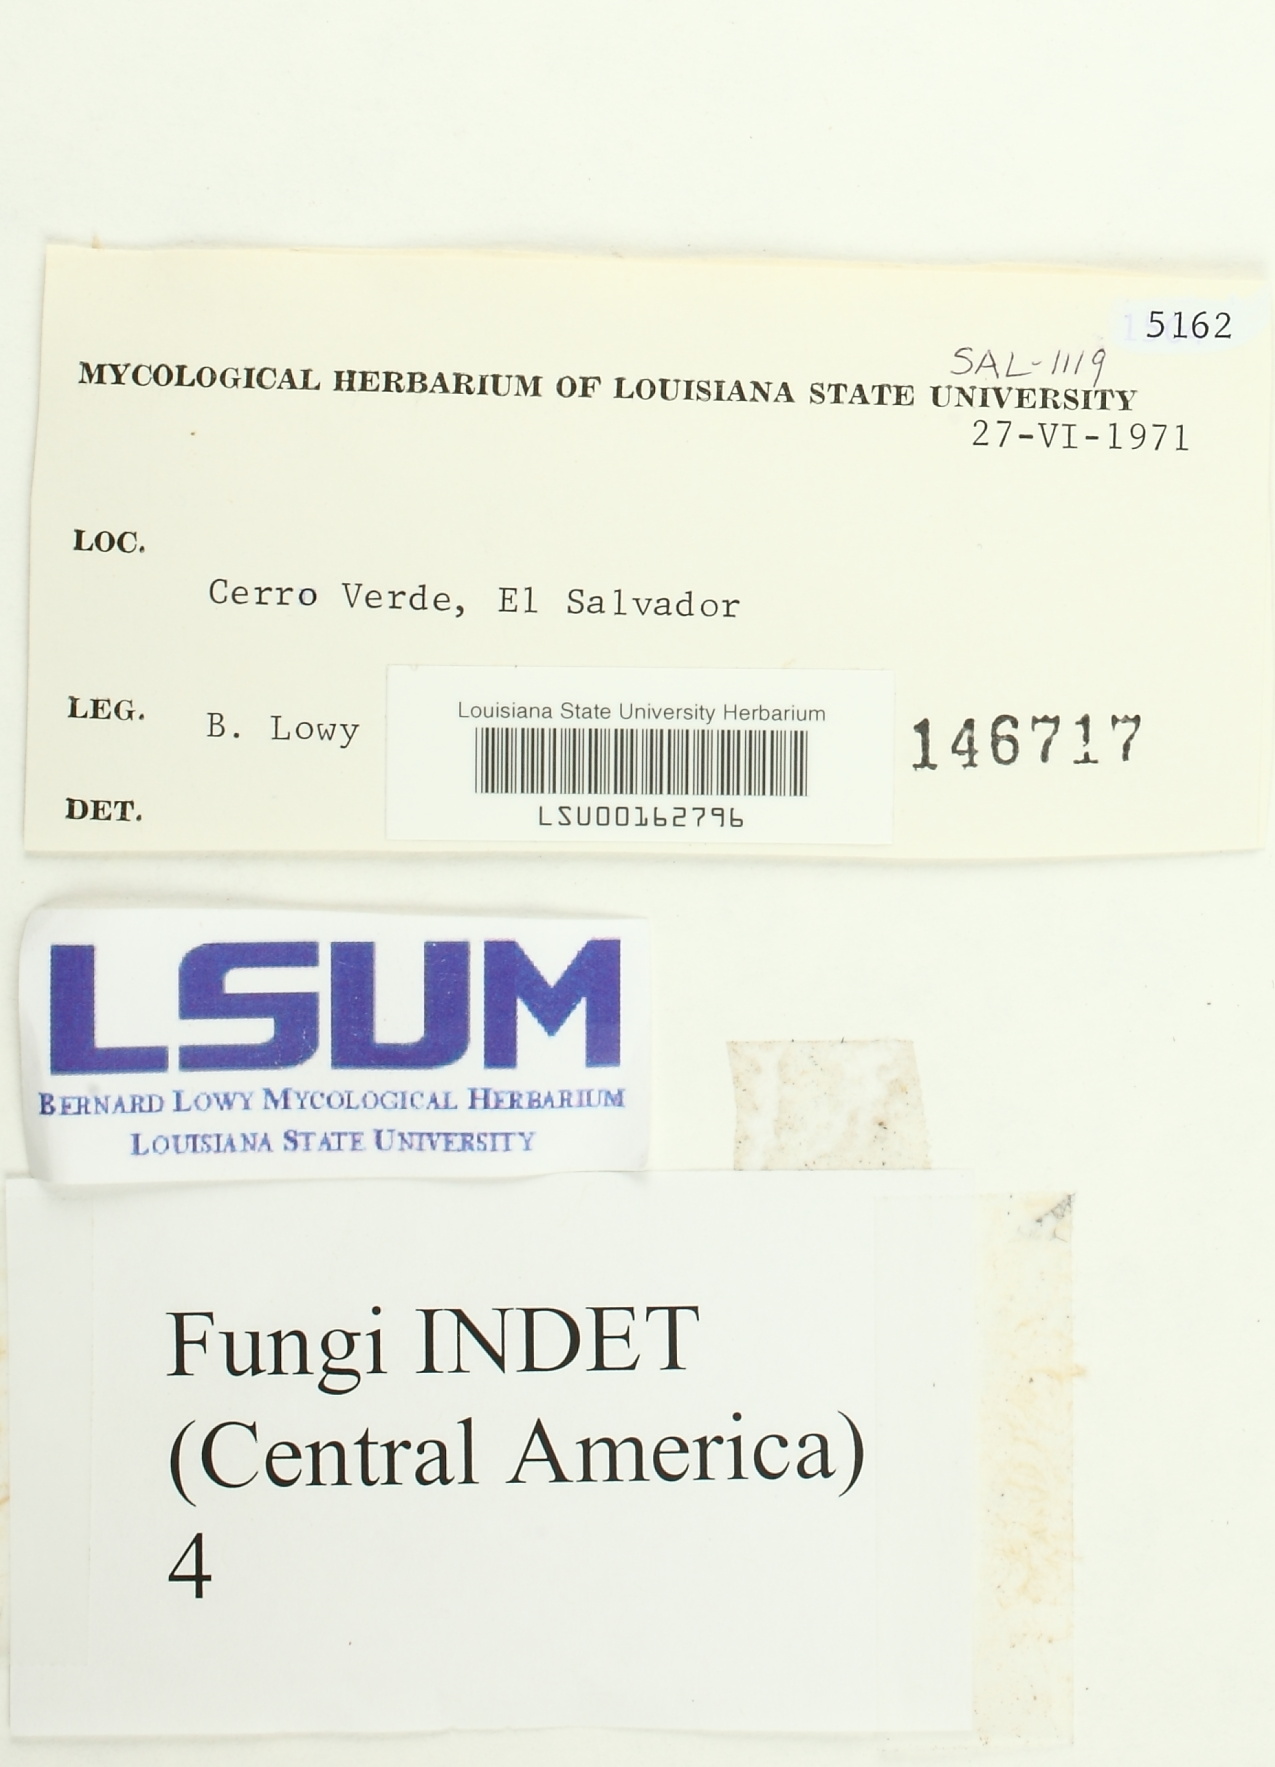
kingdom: Fungi
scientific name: Fungi
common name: Fungi
